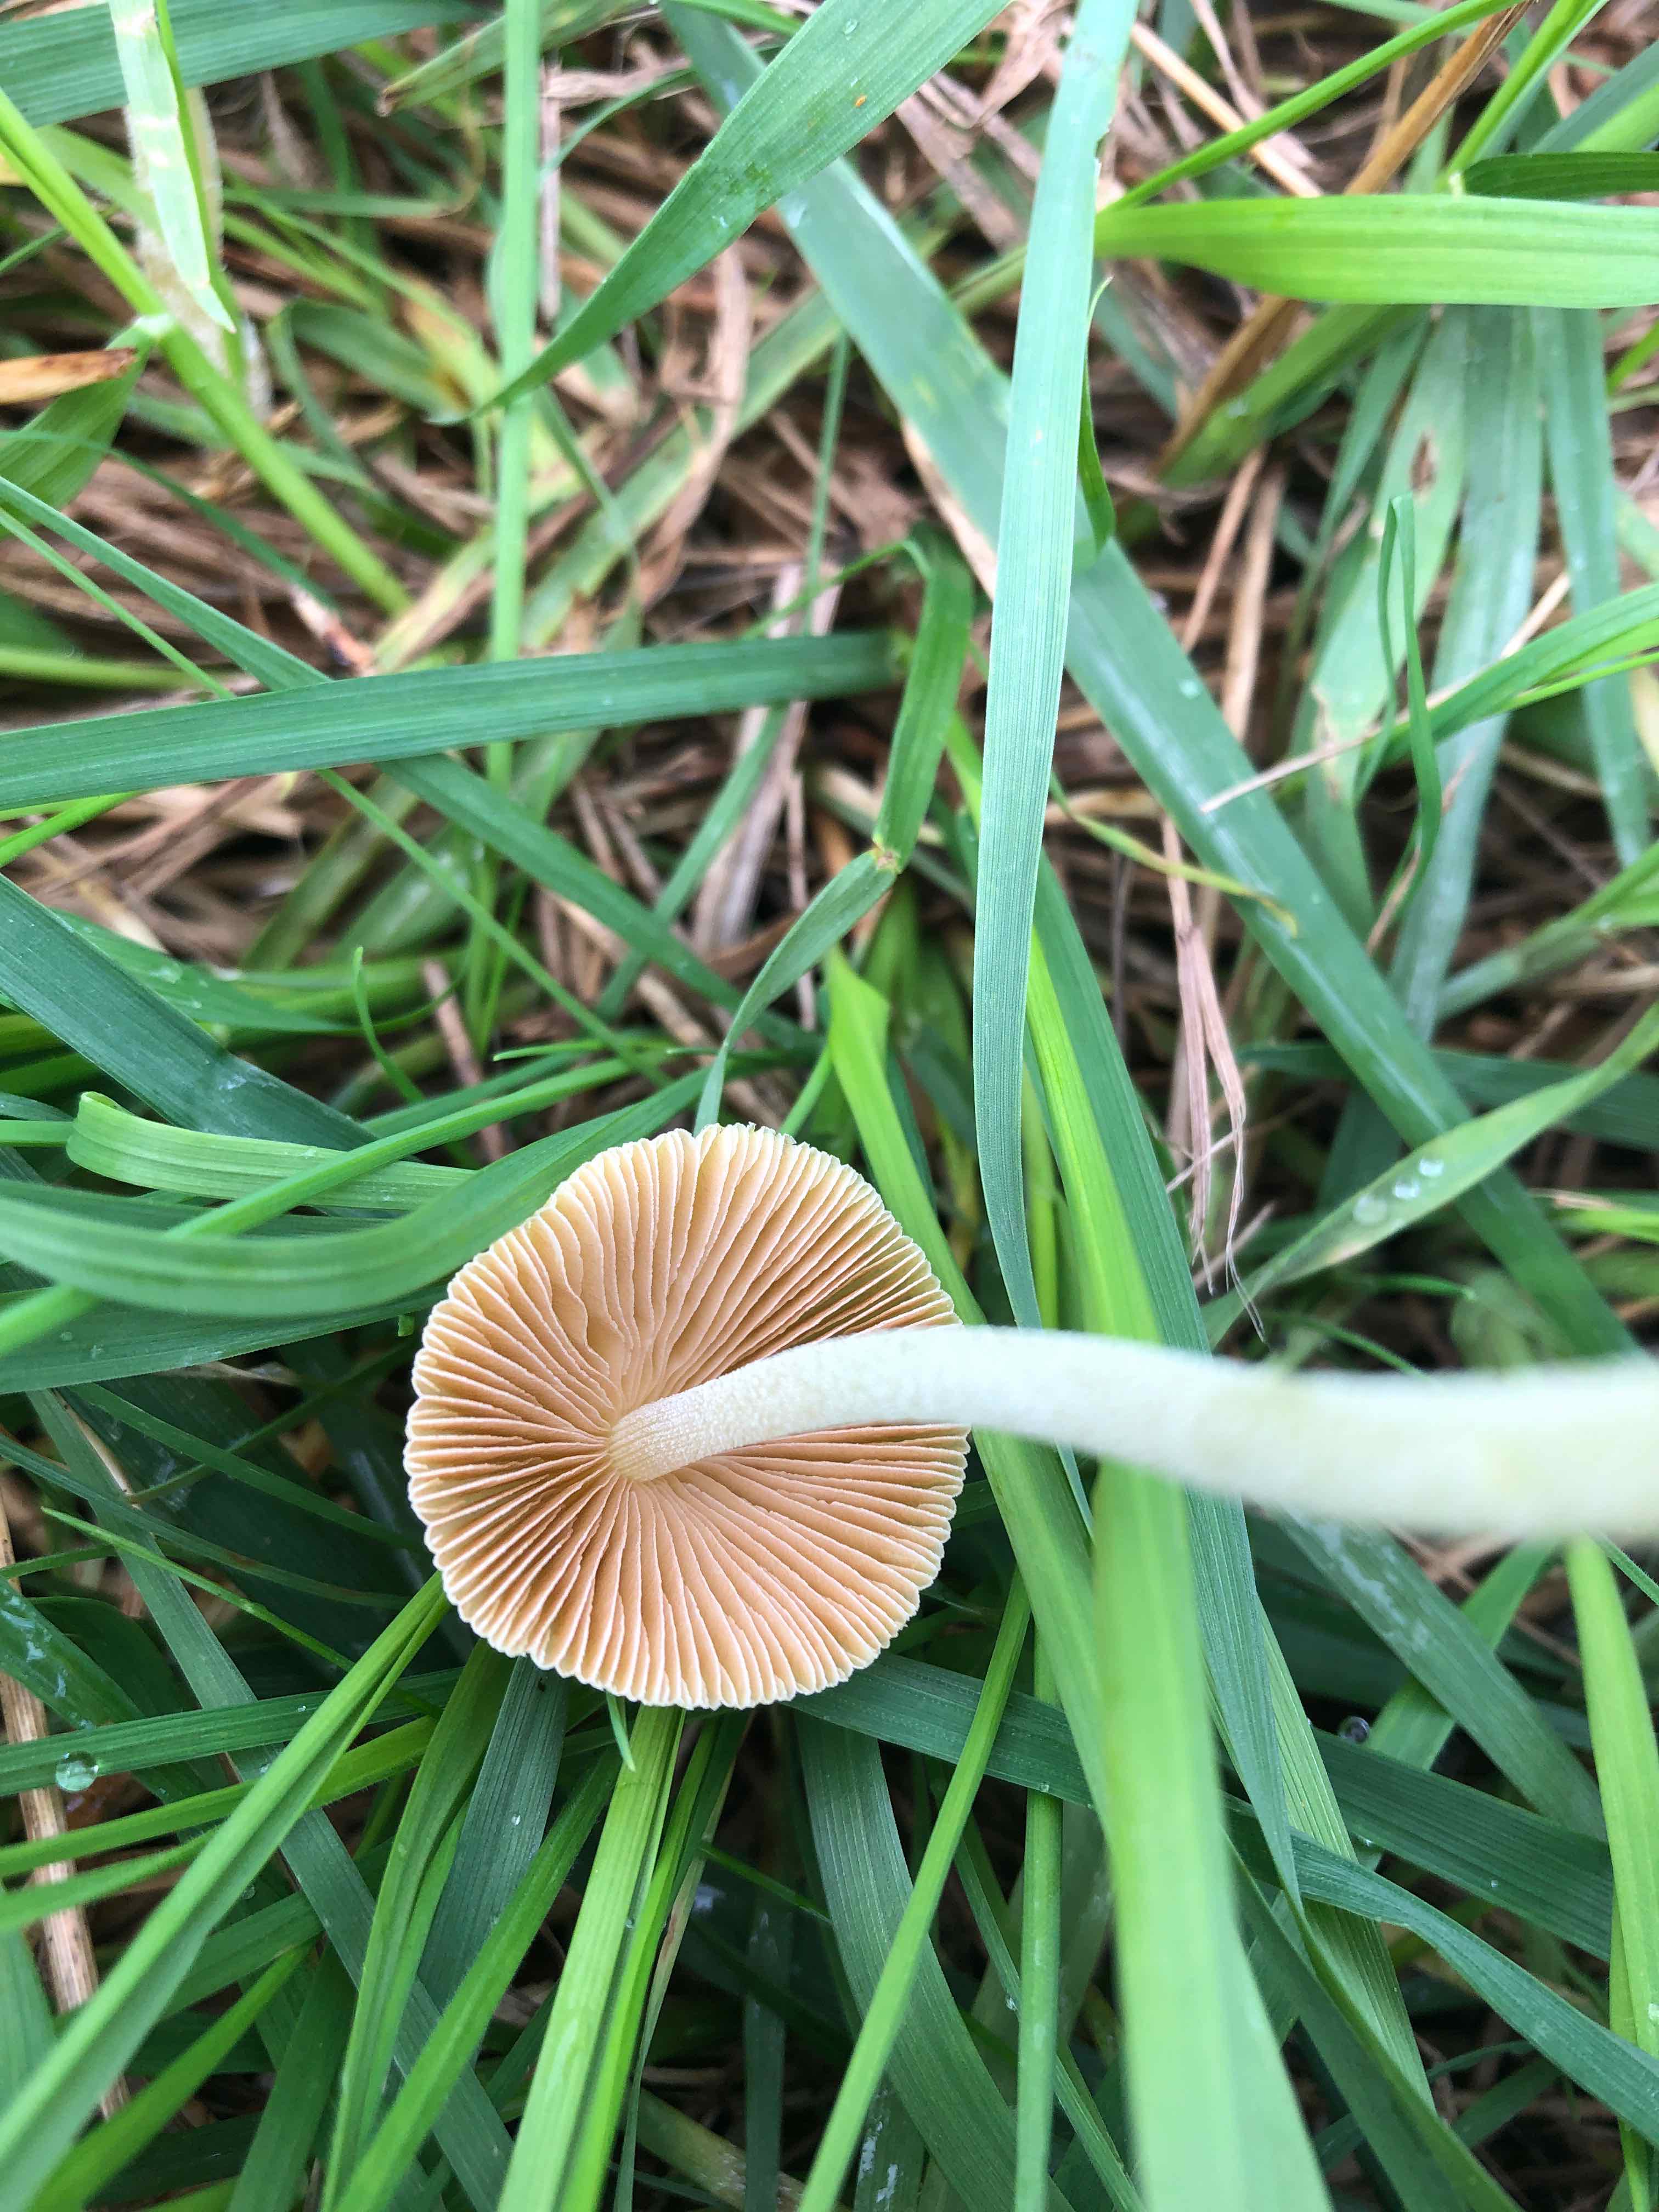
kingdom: Fungi
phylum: Basidiomycota
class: Agaricomycetes
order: Agaricales
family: Bolbitiaceae
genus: Bolbitius
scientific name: Bolbitius titubans
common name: almindelig gulhat
